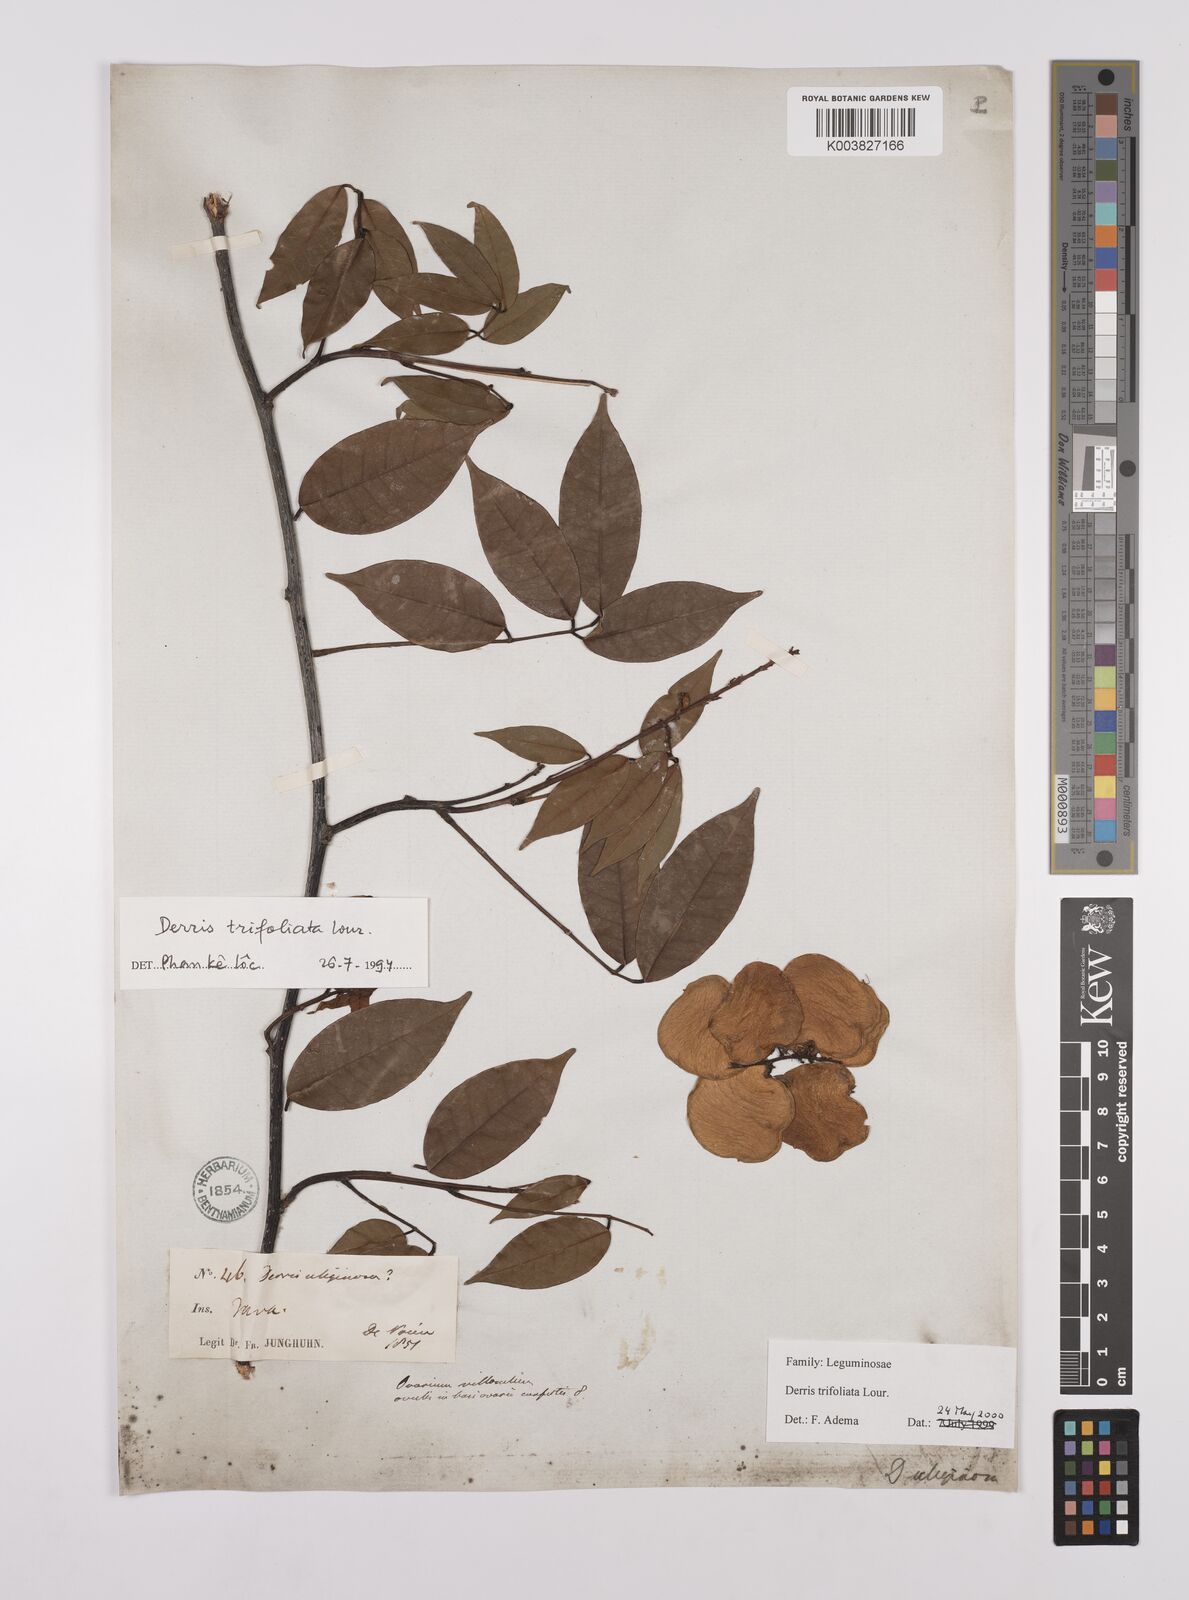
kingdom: Plantae
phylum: Tracheophyta
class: Magnoliopsida
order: Fabales
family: Fabaceae
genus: Derris
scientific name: Derris trifoliata
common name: Three-leaf derris
